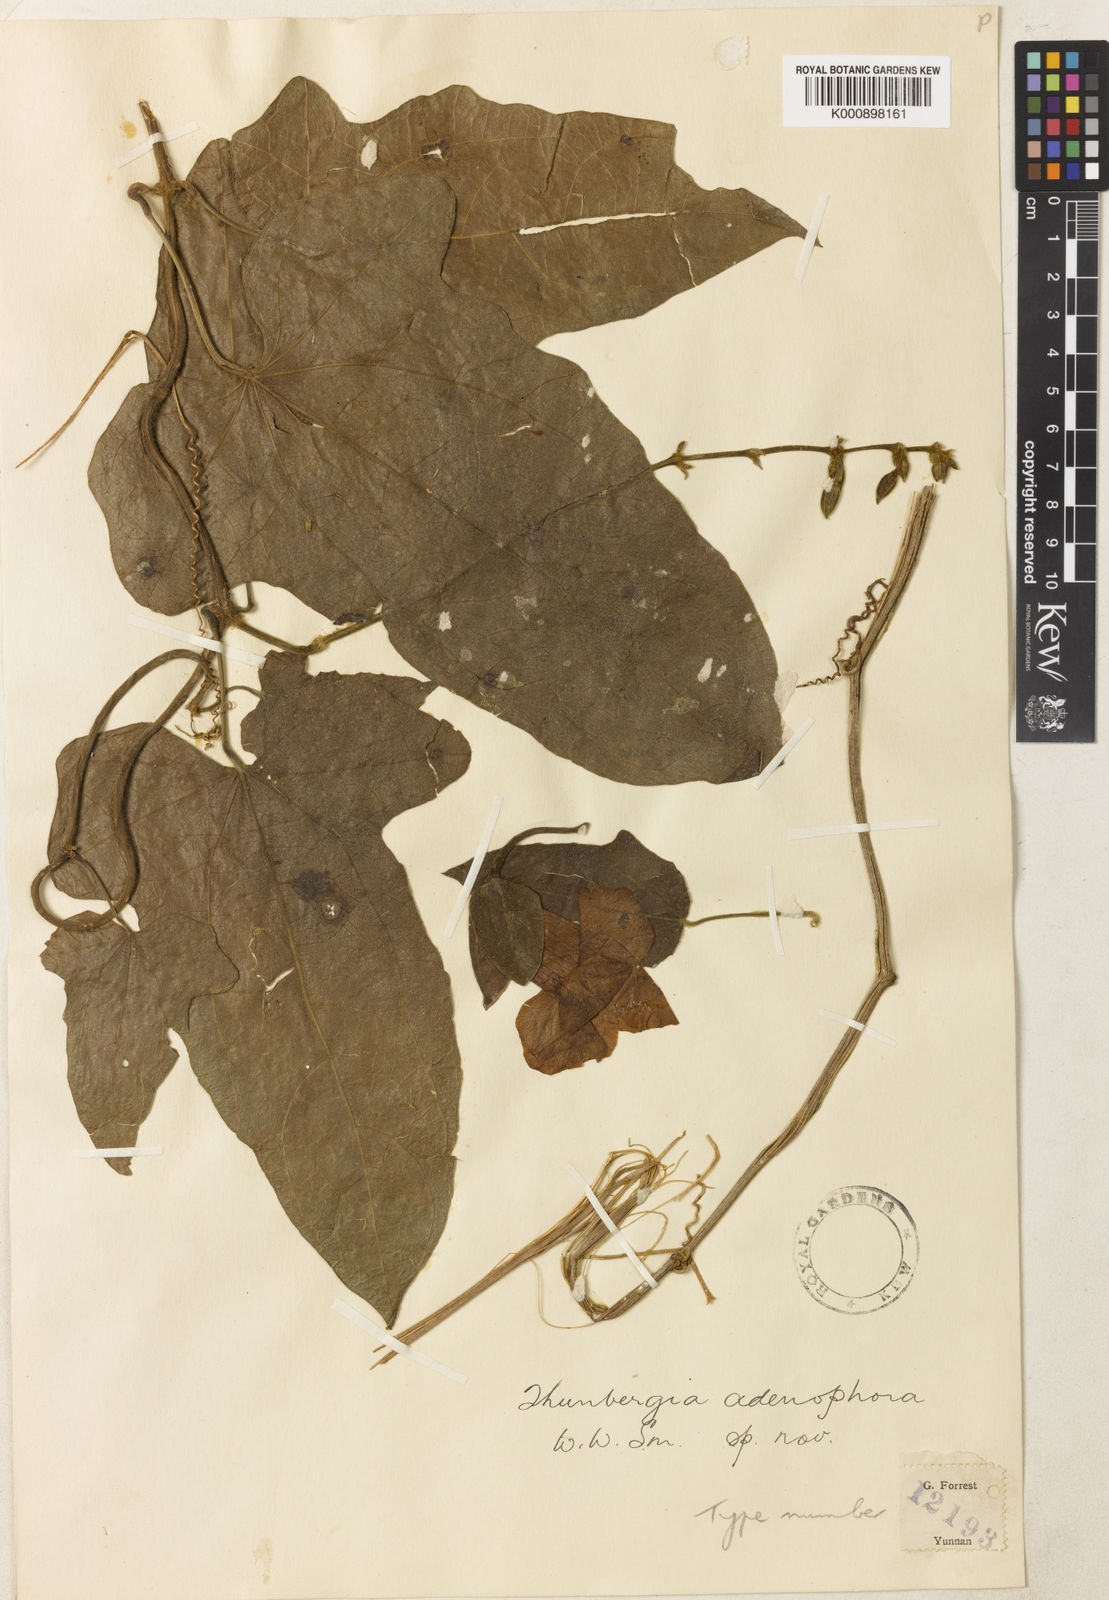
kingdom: Plantae
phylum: Tracheophyta
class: Magnoliopsida
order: Lamiales
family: Acanthaceae
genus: Thunbergia
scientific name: Thunbergia grandiflora
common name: Bengal trumpet
